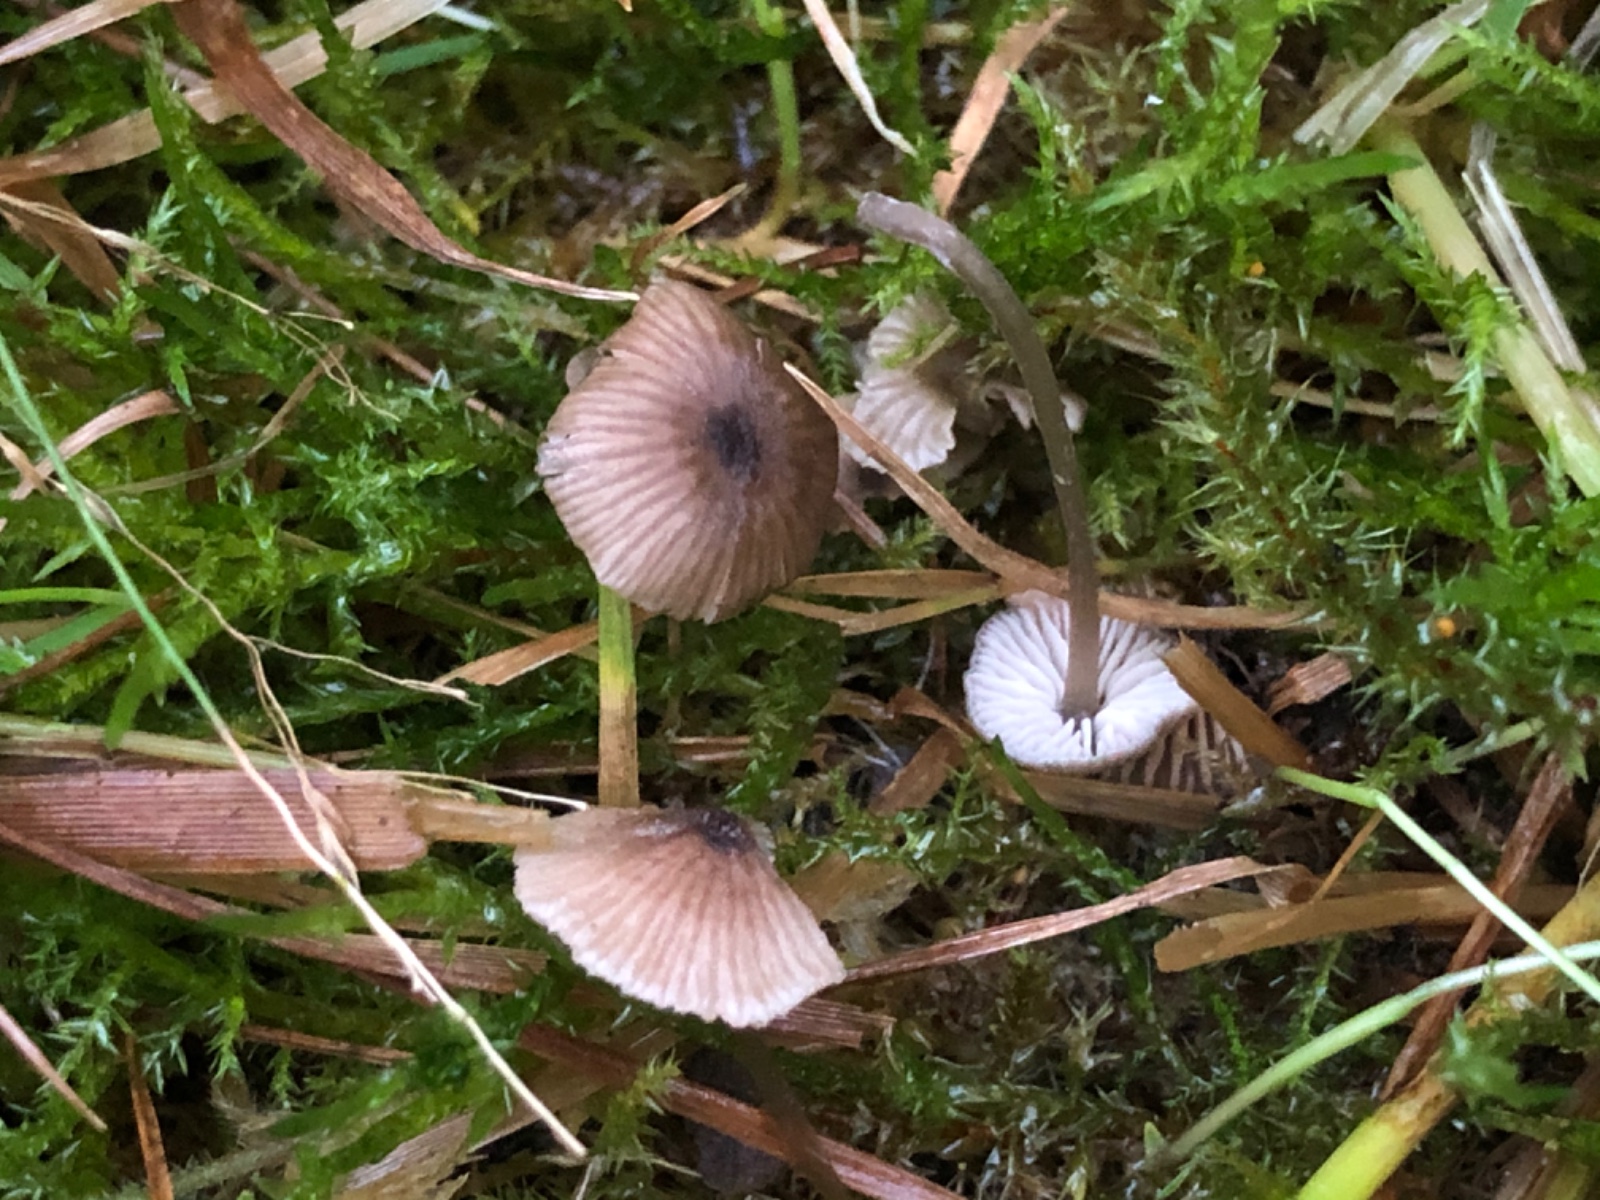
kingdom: Fungi
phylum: Basidiomycota
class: Agaricomycetes
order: Agaricales
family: Entolomataceae
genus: Entoloma
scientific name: Entoloma
